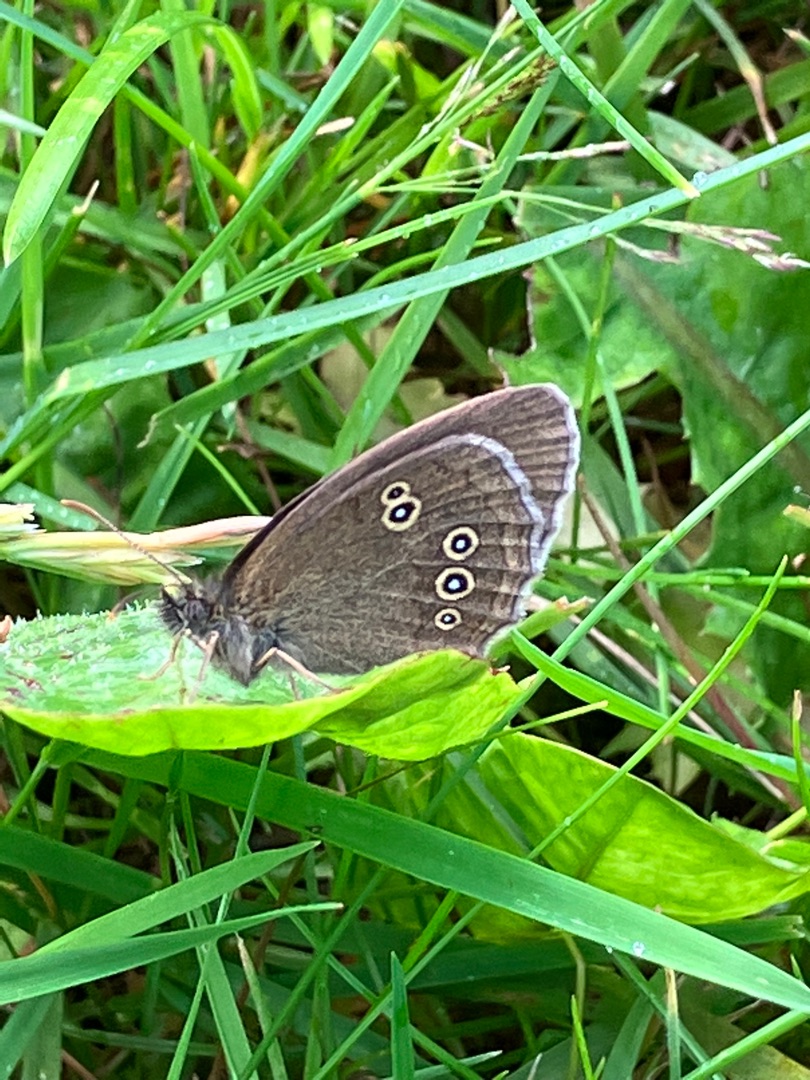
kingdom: Animalia
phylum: Arthropoda
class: Insecta
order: Lepidoptera
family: Nymphalidae
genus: Aphantopus
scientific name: Aphantopus hyperantus
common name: Engrandøje
